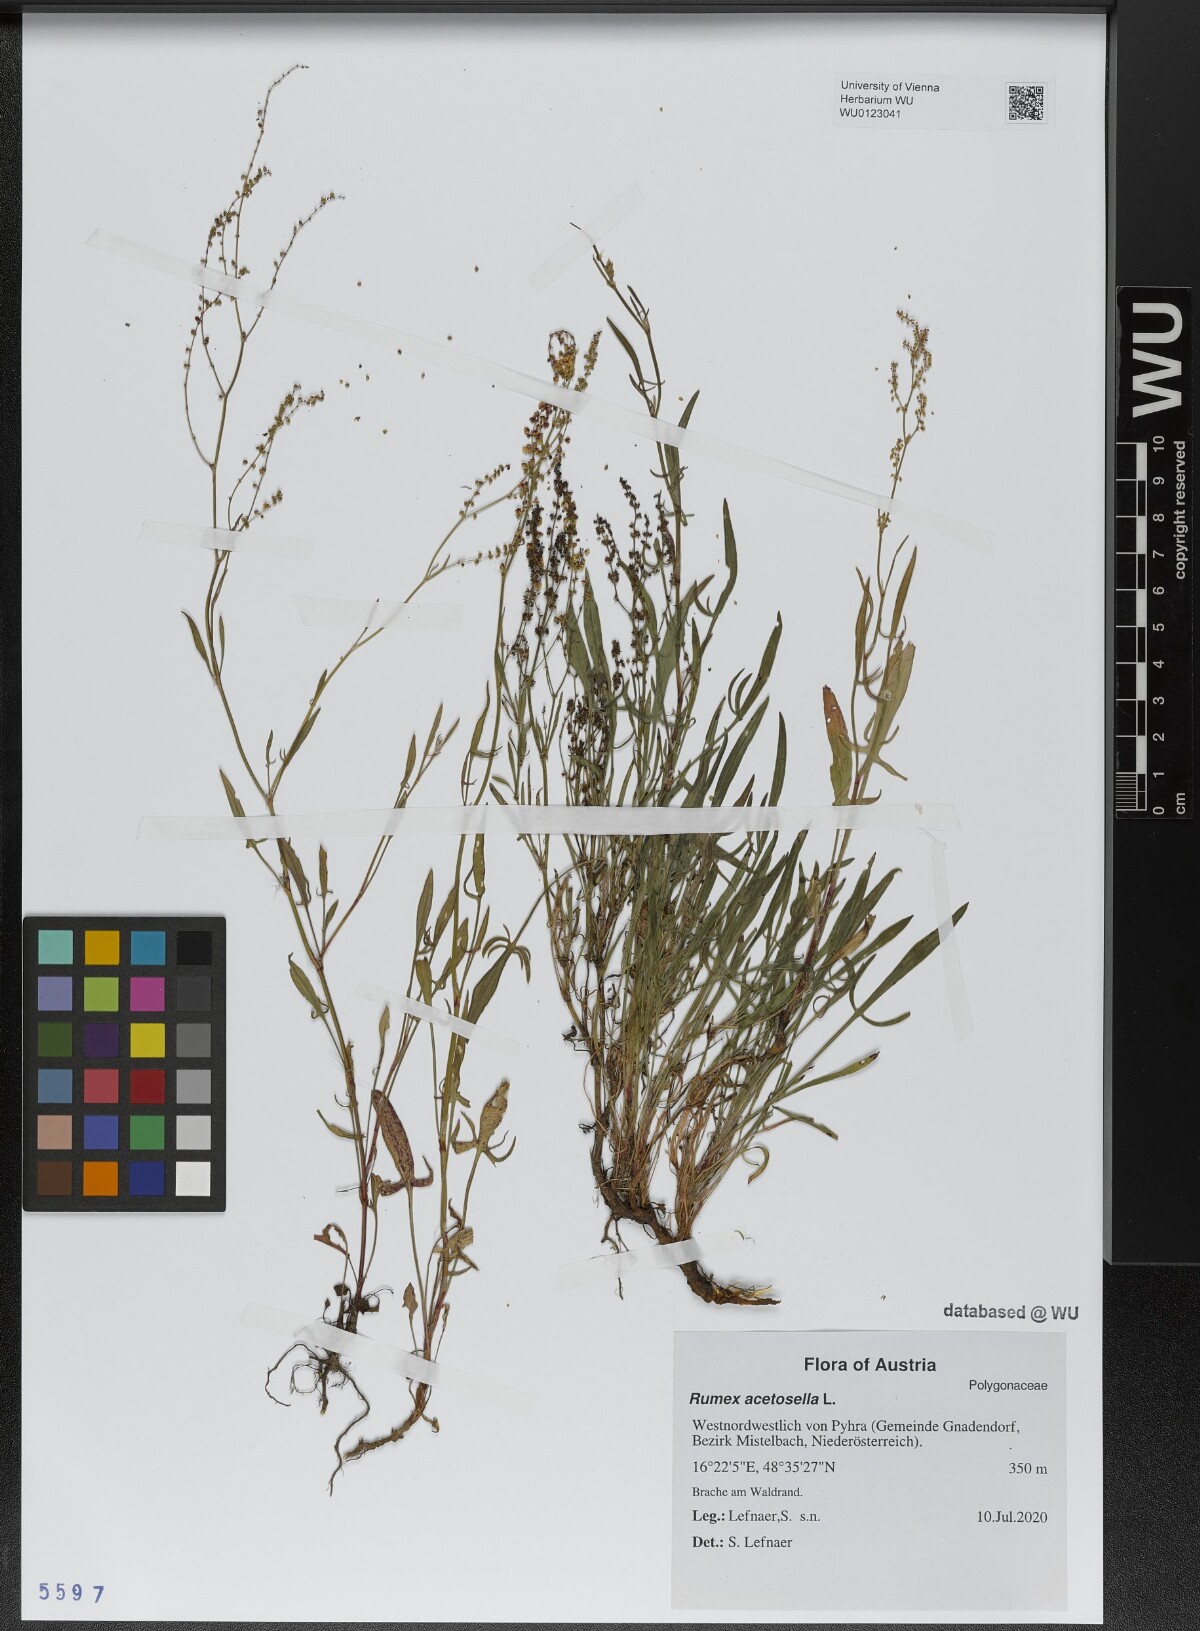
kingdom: Plantae
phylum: Tracheophyta
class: Magnoliopsida
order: Caryophyllales
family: Polygonaceae
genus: Rumex
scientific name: Rumex acetosella
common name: Common sheep sorrel
